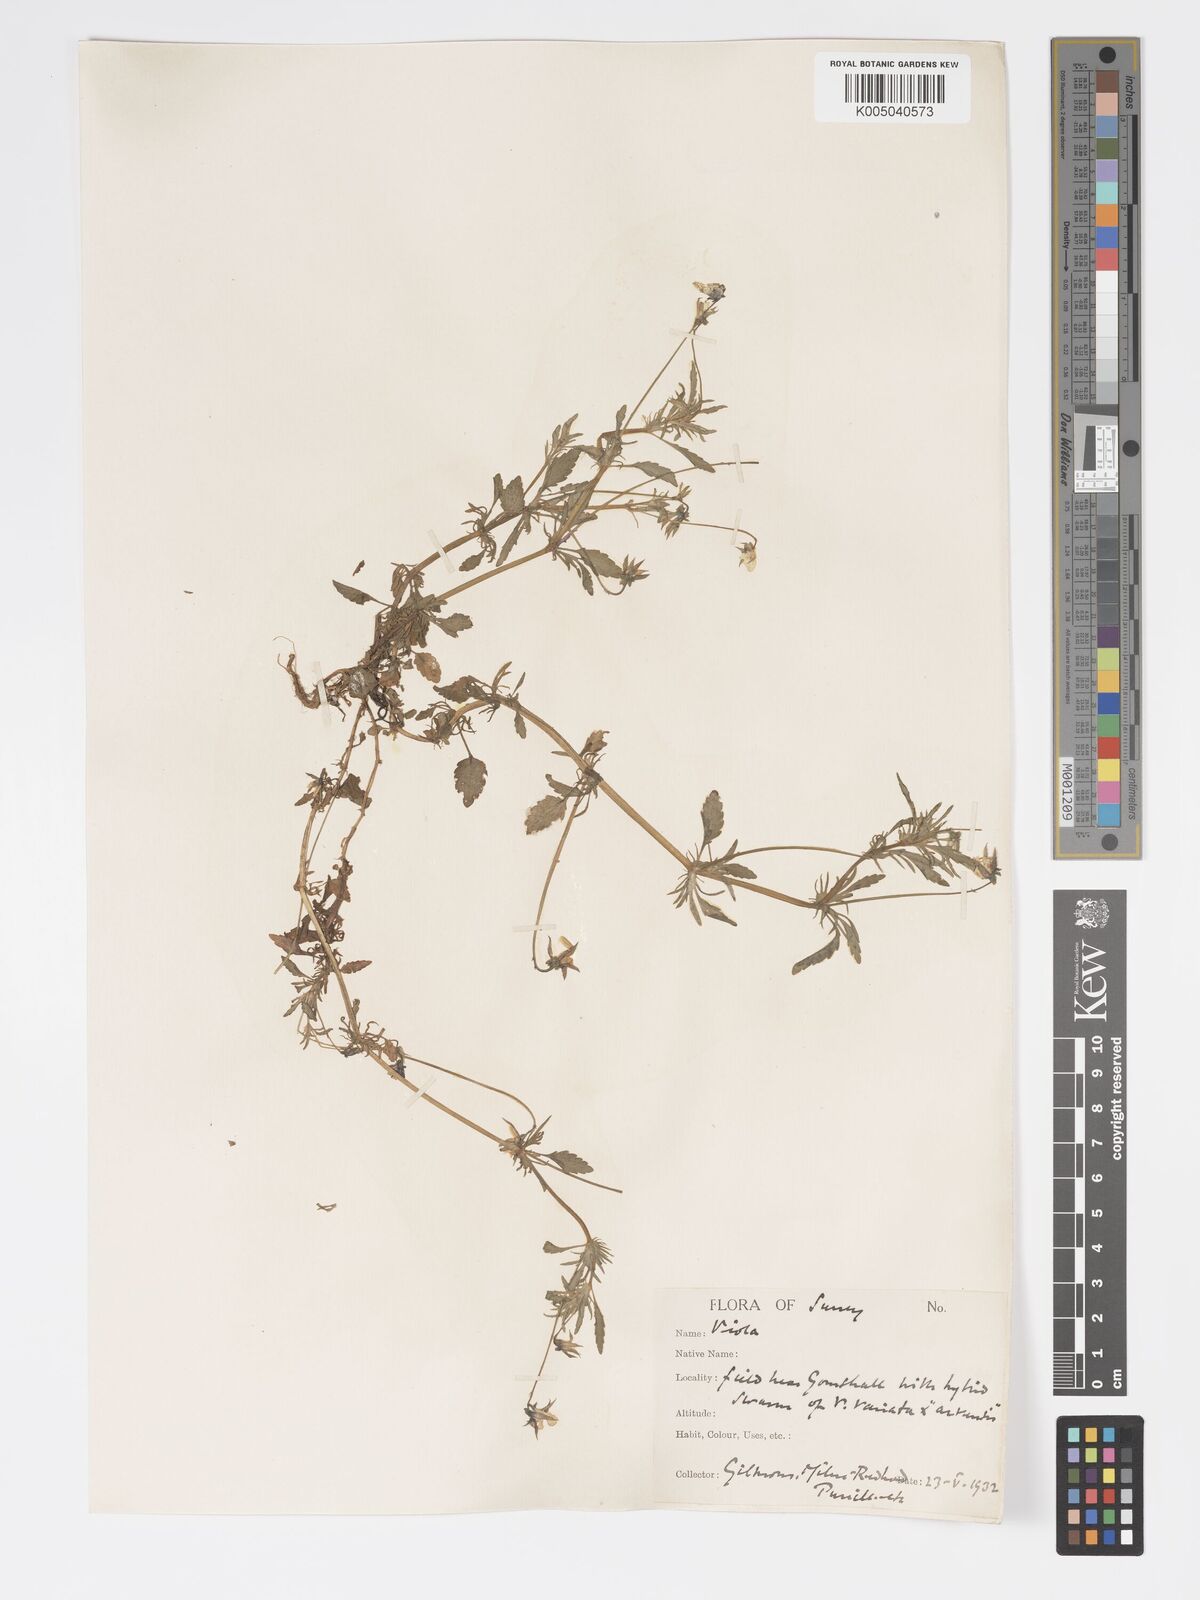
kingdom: Plantae
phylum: Tracheophyta
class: Magnoliopsida
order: Malpighiales
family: Violaceae
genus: Viola
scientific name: Viola
